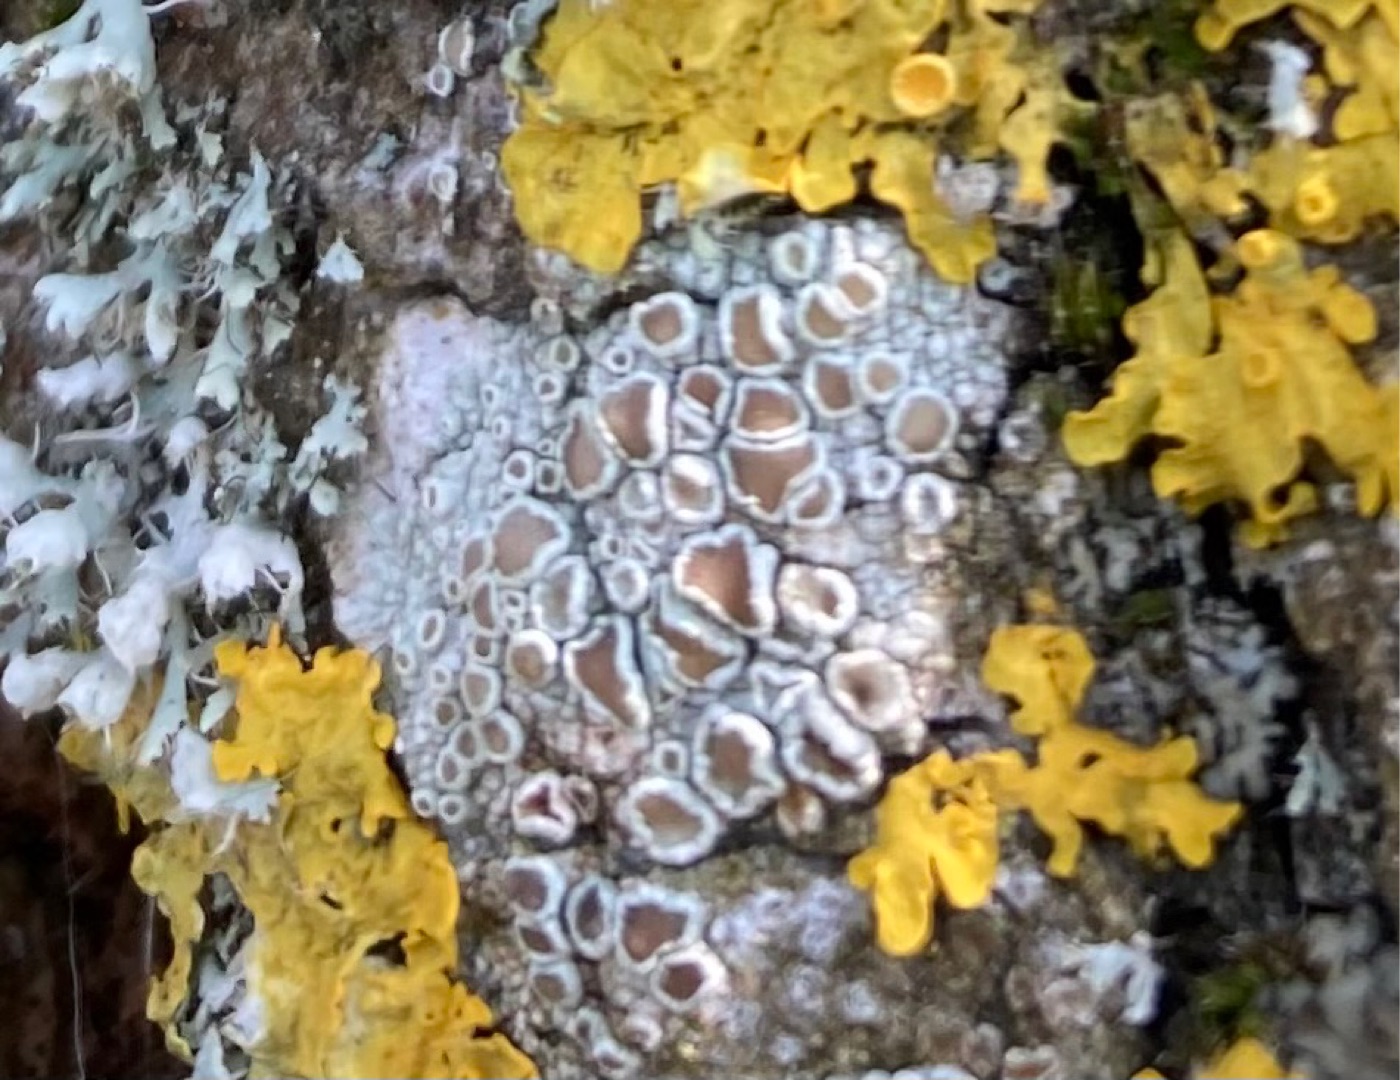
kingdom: Fungi
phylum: Ascomycota
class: Lecanoromycetes
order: Lecanorales
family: Lecanoraceae
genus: Lecanora
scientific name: Lecanora chlarotera
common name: Brun kantskivelav
